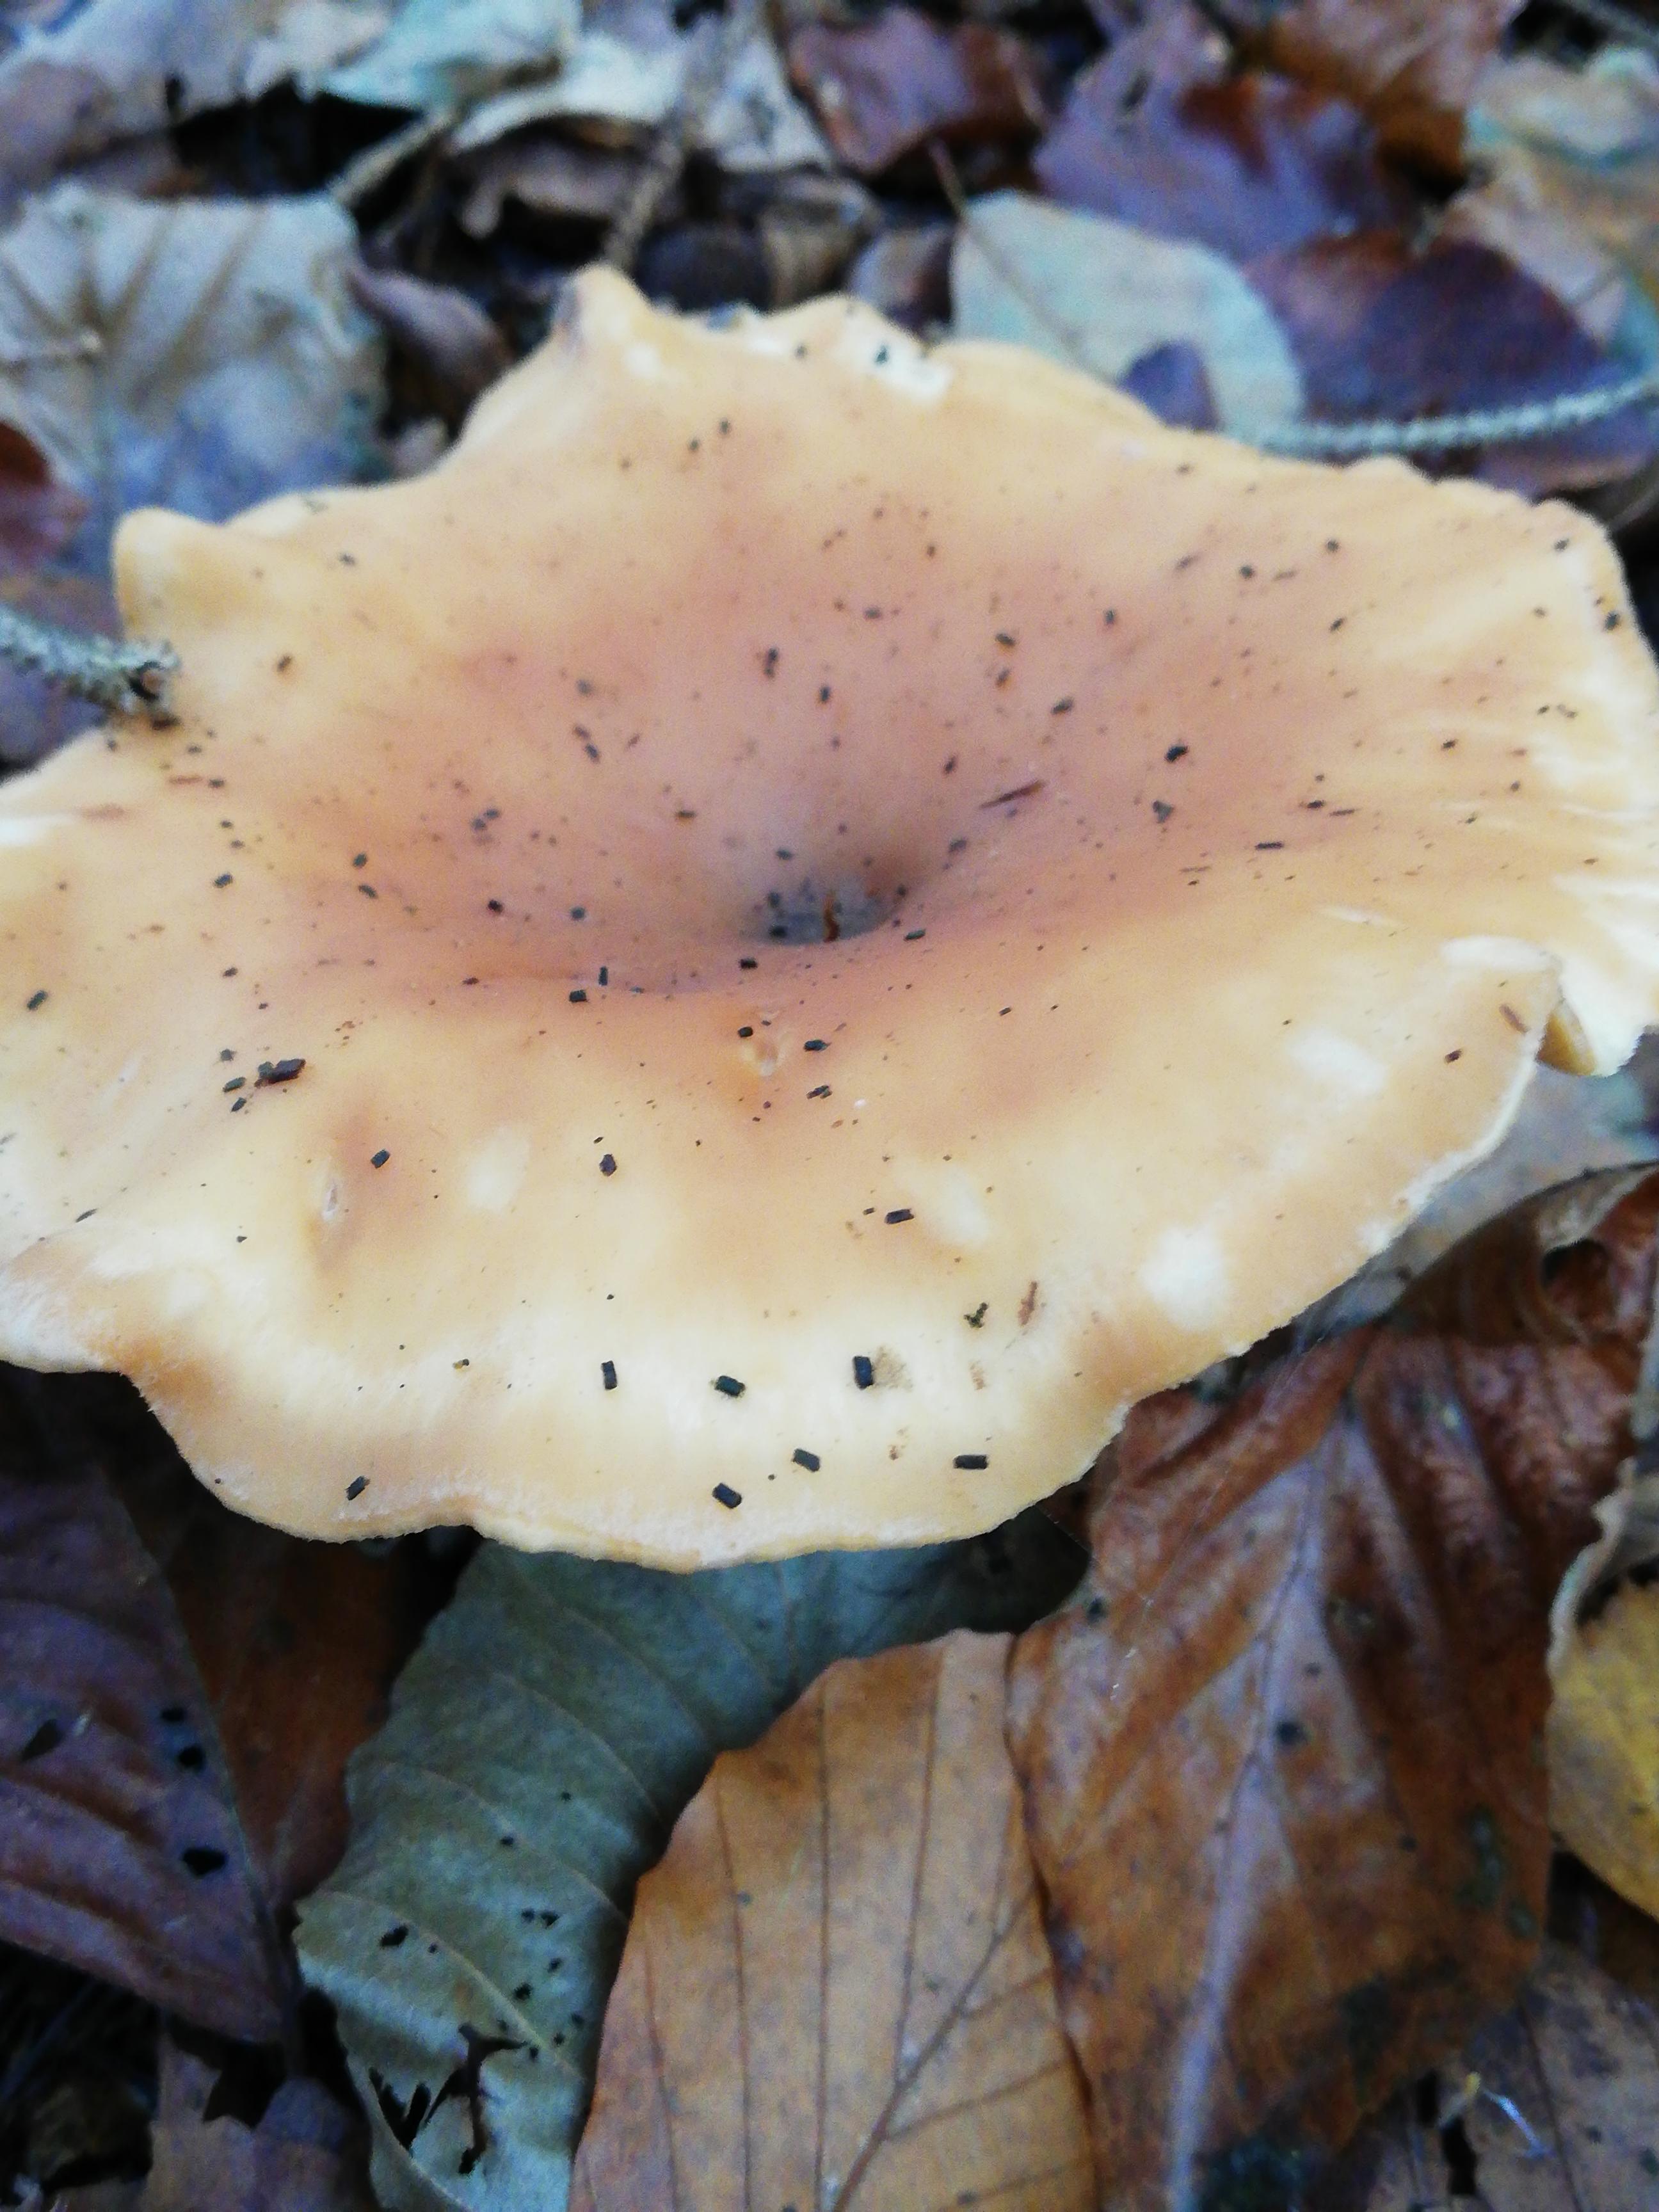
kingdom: Fungi
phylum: Basidiomycota
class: Agaricomycetes
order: Agaricales
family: Tricholomataceae
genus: Paralepista
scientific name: Paralepista flaccida
